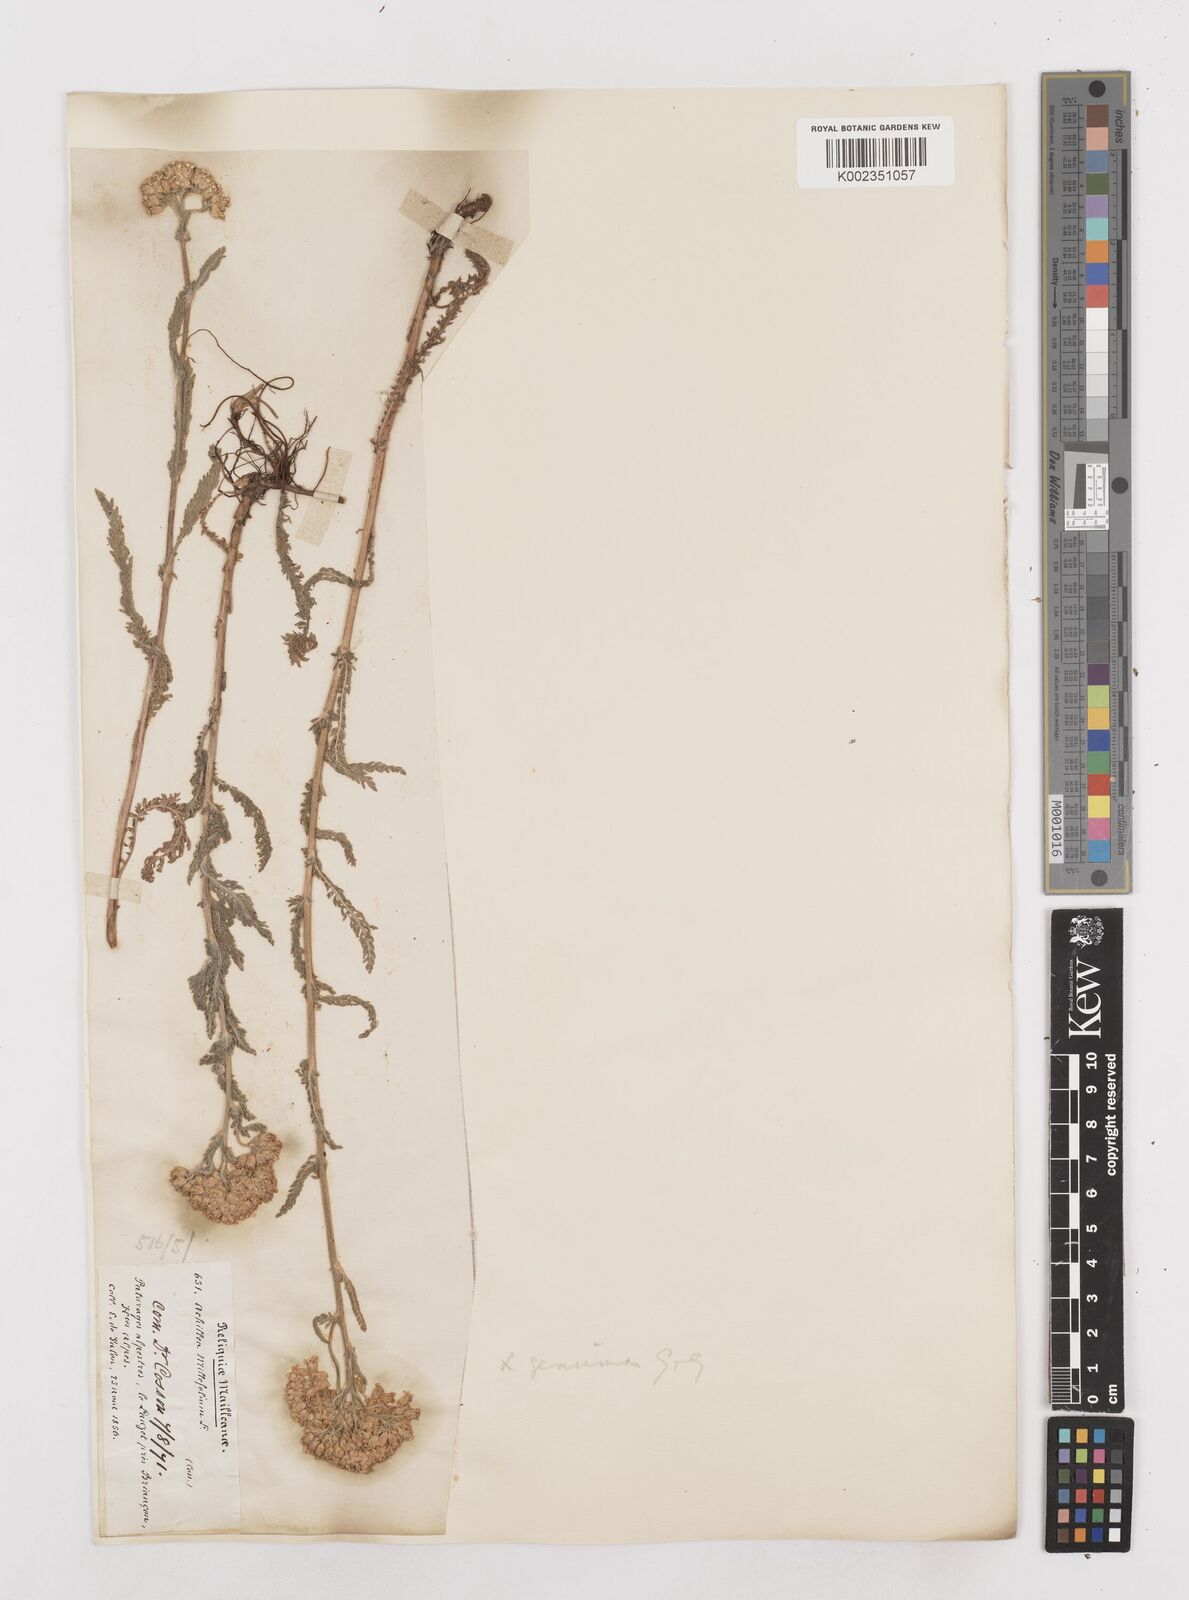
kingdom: Plantae
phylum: Tracheophyta
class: Magnoliopsida
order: Asterales
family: Asteraceae
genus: Achillea
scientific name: Achillea millefolium
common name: Yarrow
